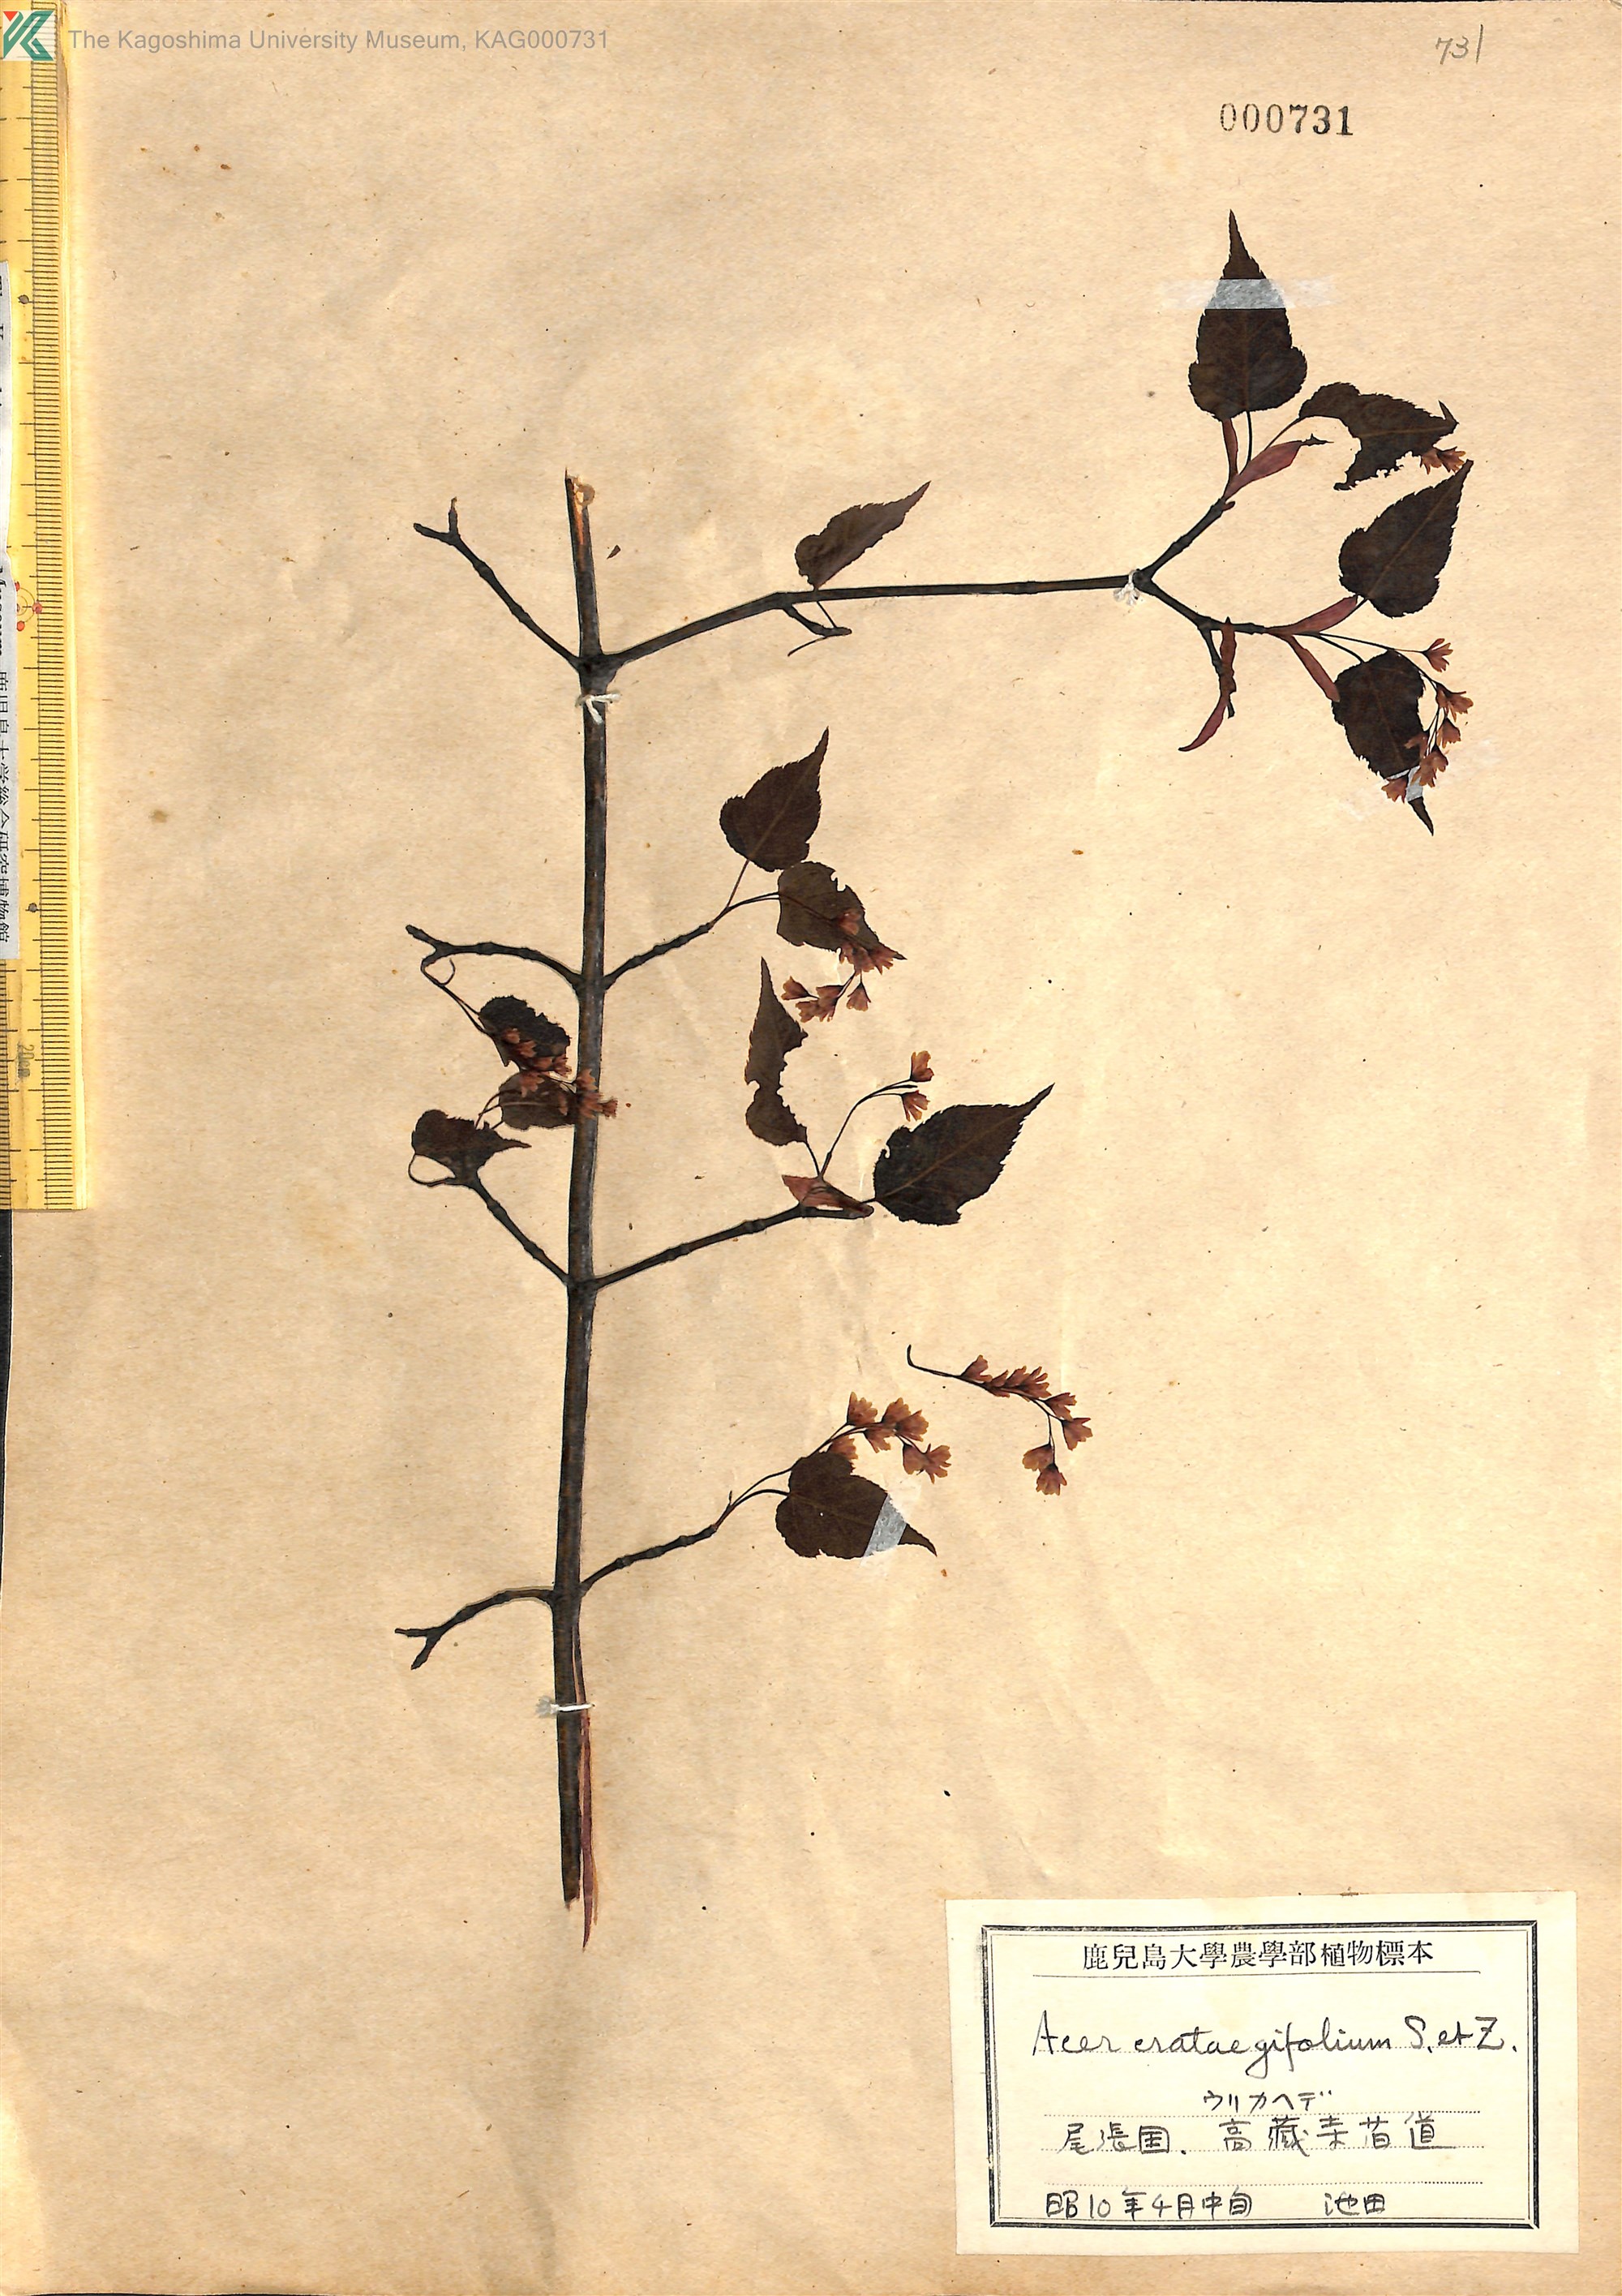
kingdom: Plantae
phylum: Tracheophyta
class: Magnoliopsida
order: Sapindales
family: Sapindaceae
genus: Acer
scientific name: Acer crataegifolium
